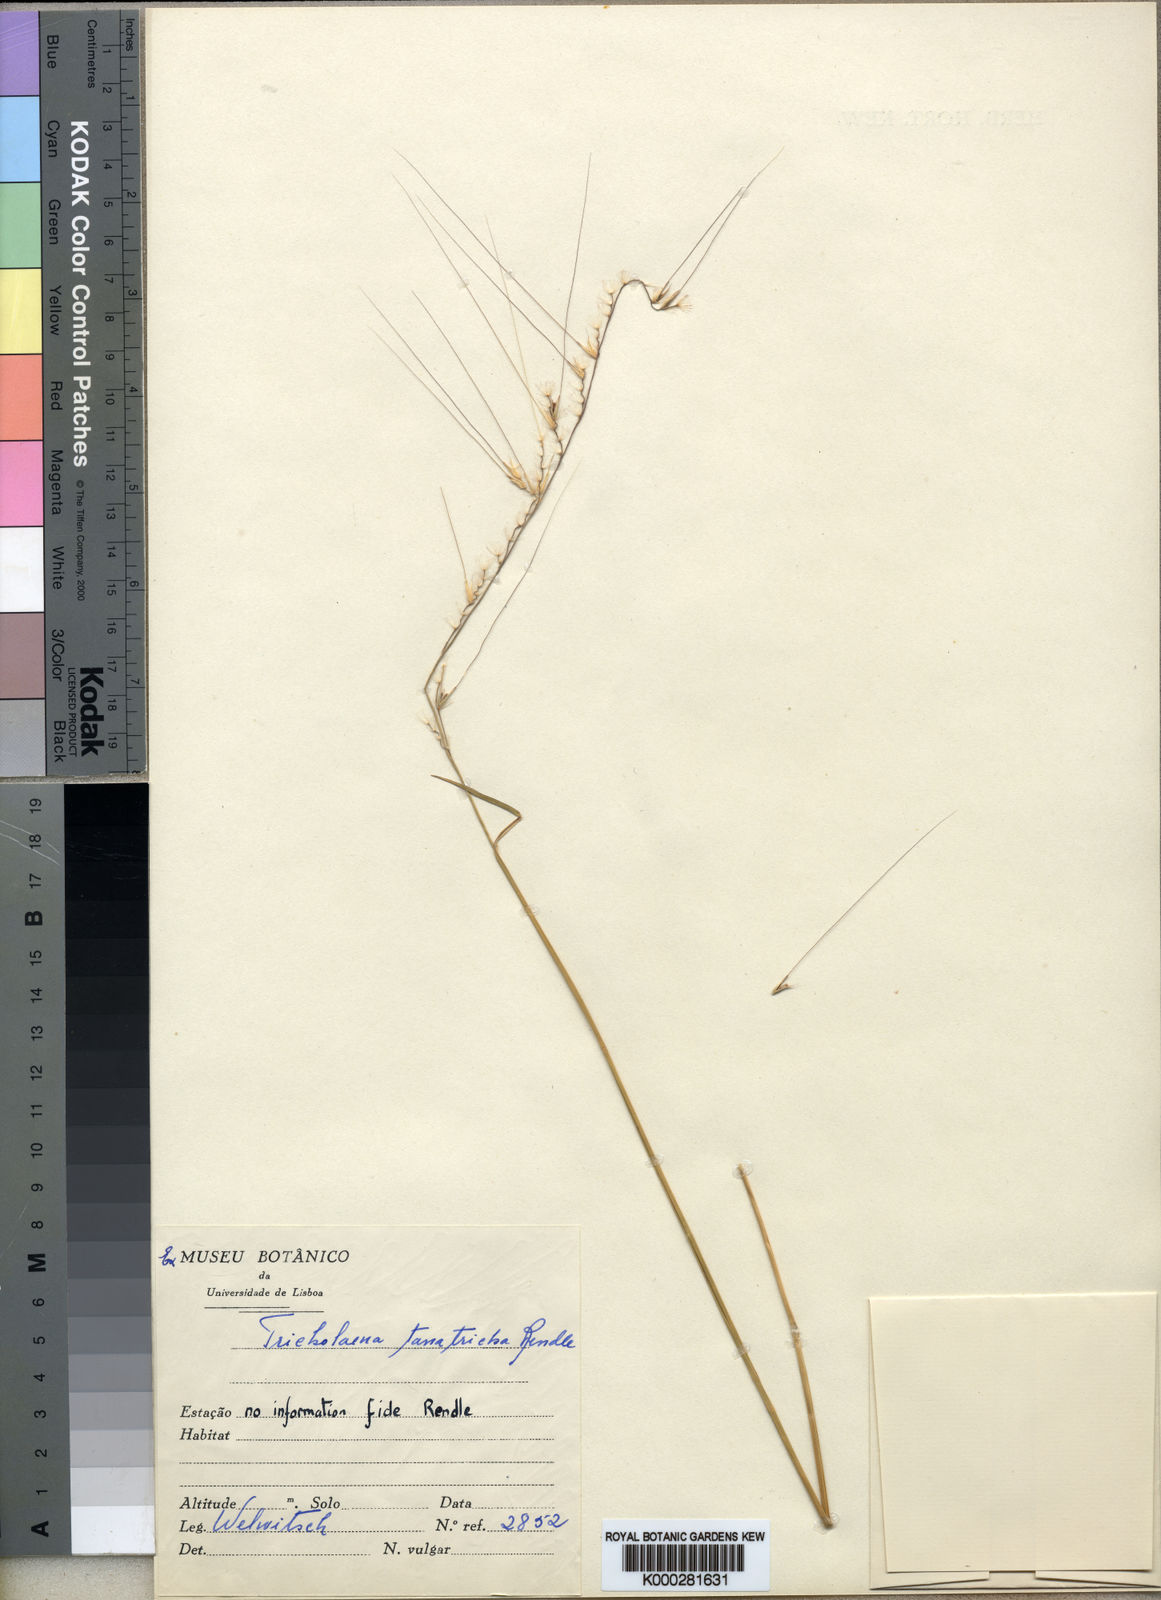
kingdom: Plantae
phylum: Tracheophyta
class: Liliopsida
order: Poales
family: Poaceae
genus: Melinis
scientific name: Melinis tanatricha
